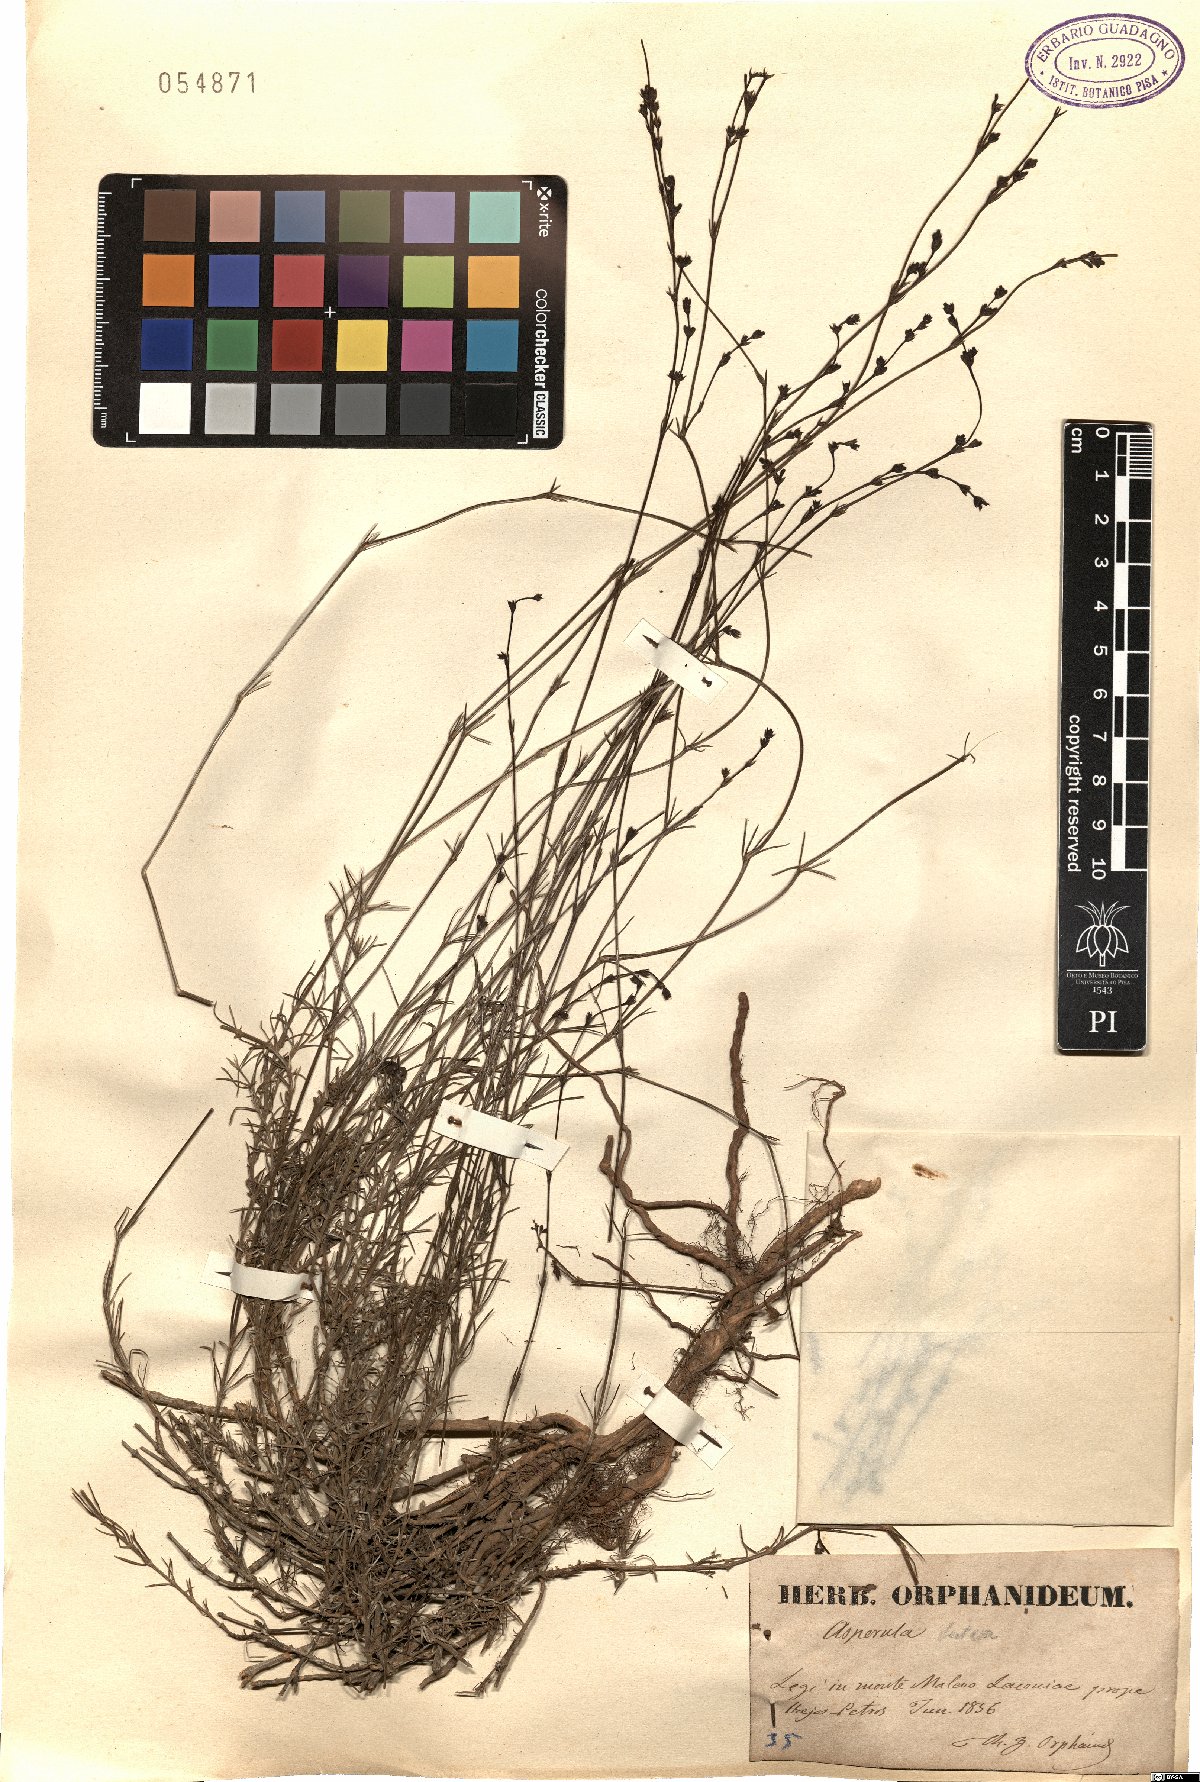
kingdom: Plantae
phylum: Tracheophyta
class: Magnoliopsida
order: Gentianales
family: Rubiaceae
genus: Cynanchica
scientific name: Cynanchica lutea
